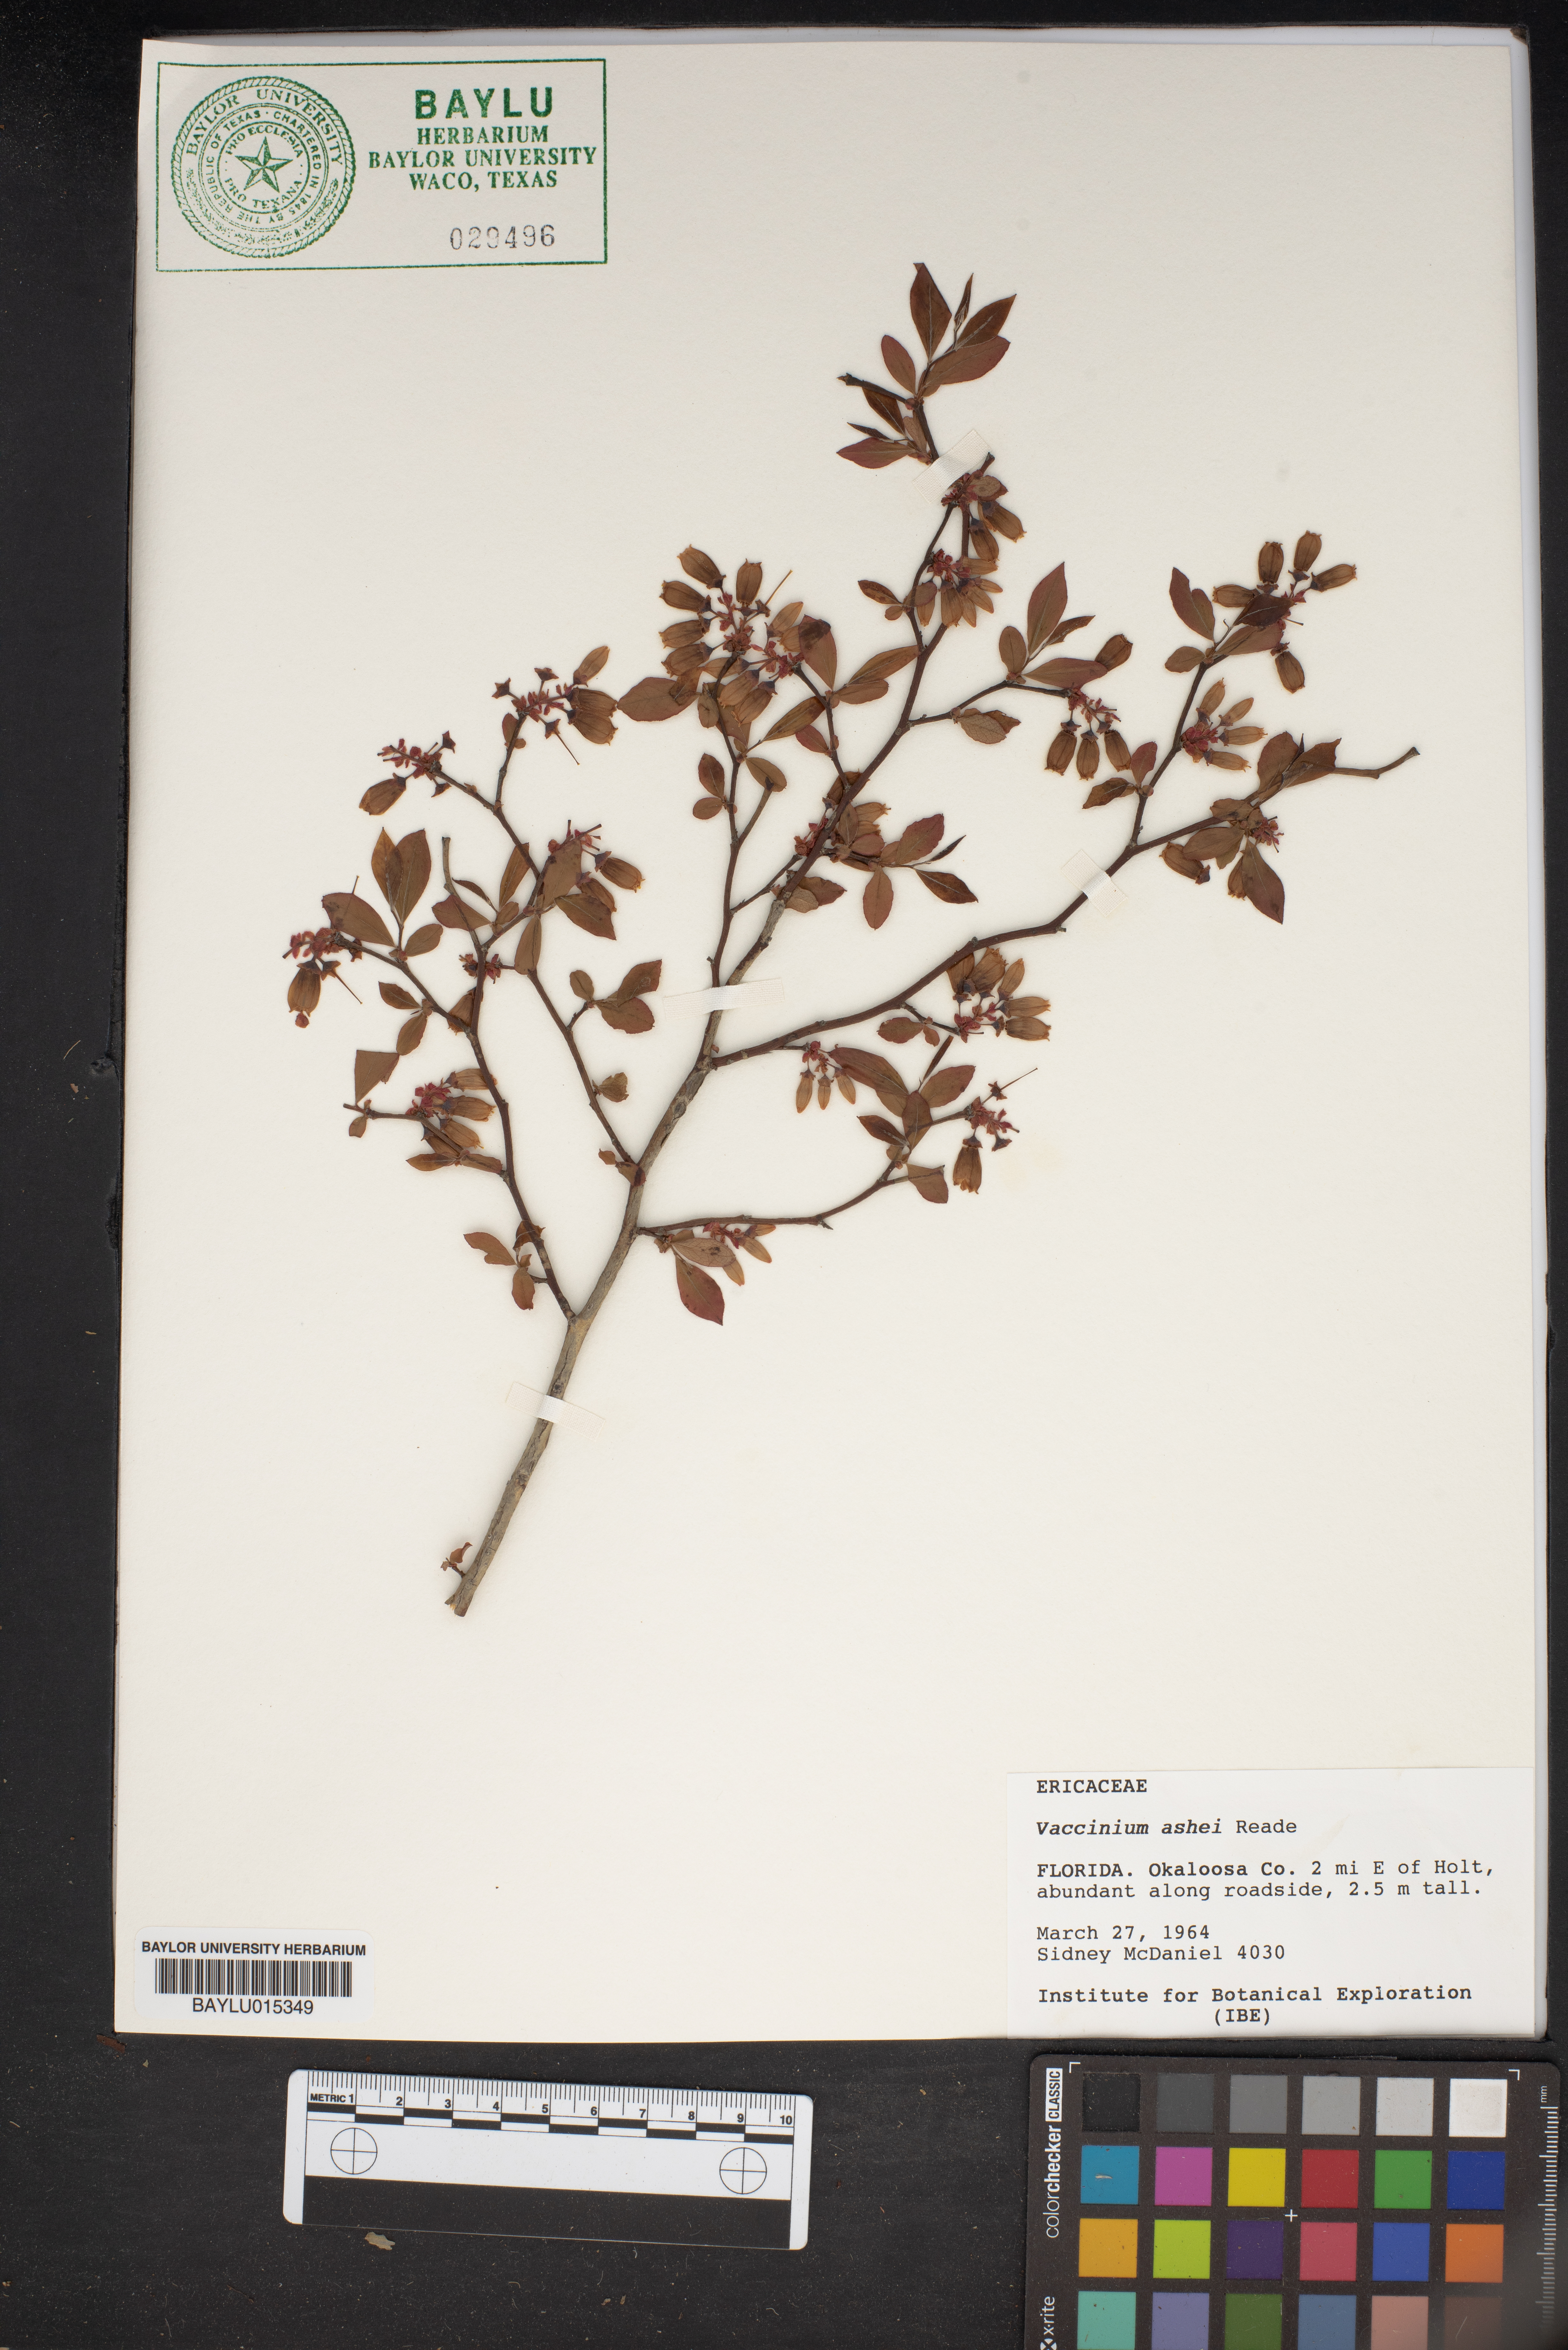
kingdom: Plantae
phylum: Tracheophyta
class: Magnoliopsida
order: Ericales
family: Ericaceae
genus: Vaccinium
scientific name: Vaccinium corymbosum
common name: Blueberry
